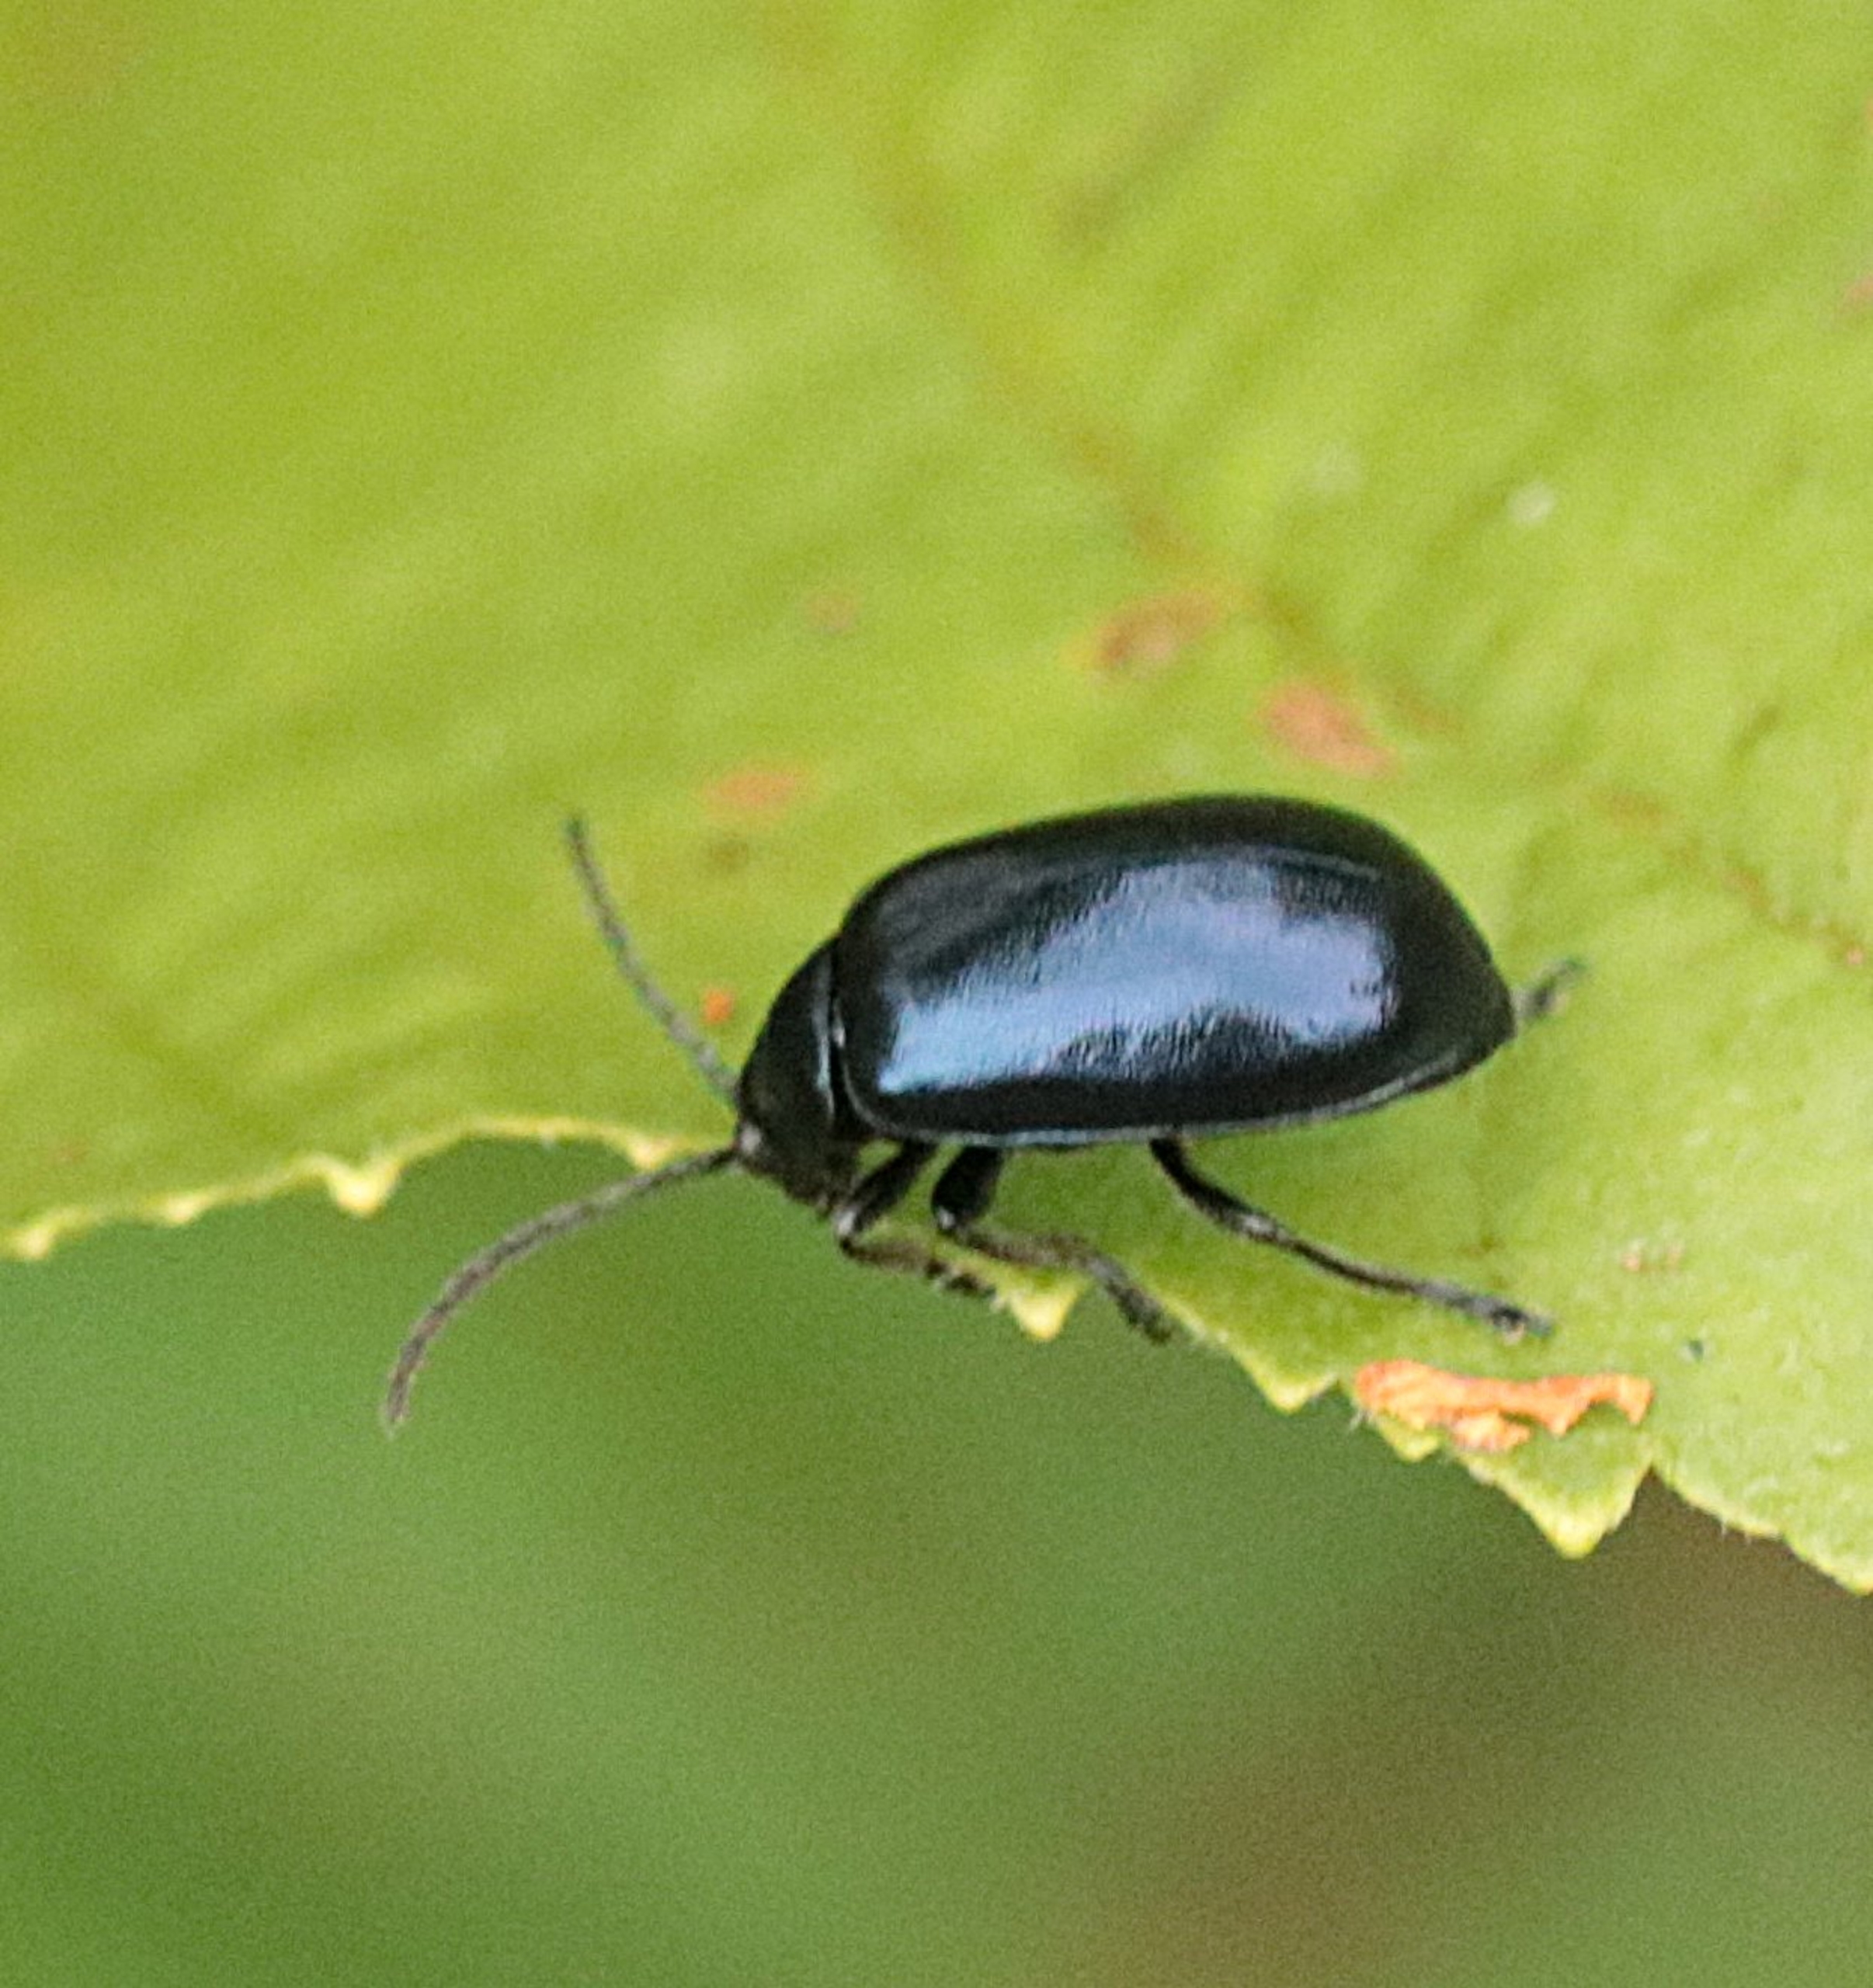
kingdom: Animalia
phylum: Arthropoda
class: Insecta
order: Coleoptera
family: Chrysomelidae
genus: Agelastica
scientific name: Agelastica alni
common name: Ellebladbille
